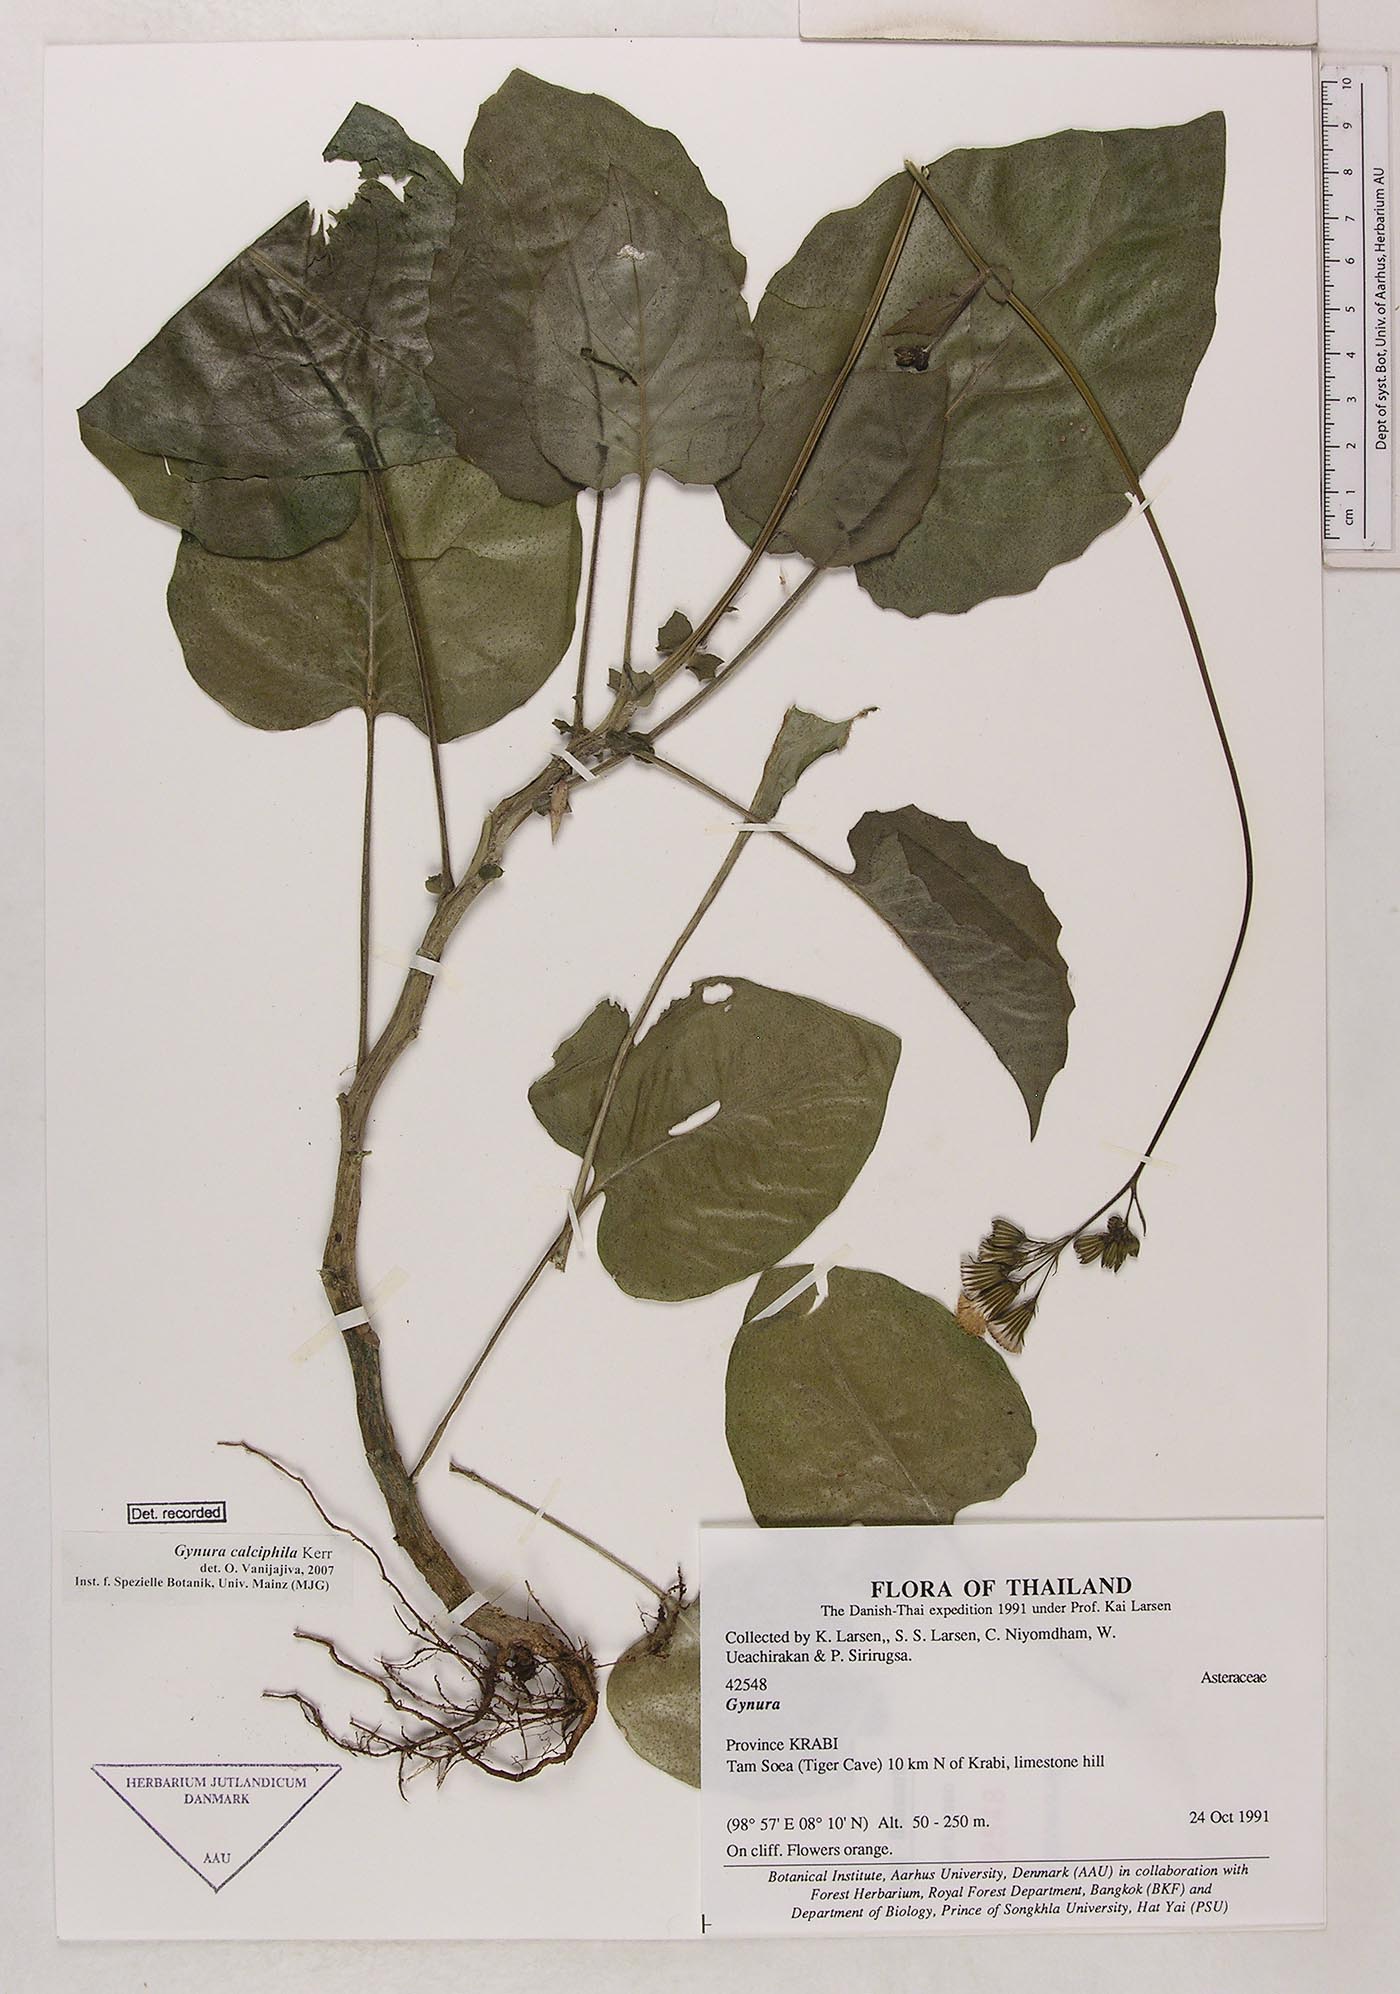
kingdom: Plantae
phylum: Tracheophyta
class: Magnoliopsida
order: Asterales
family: Asteraceae
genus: Gynura
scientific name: Gynura calciphila
